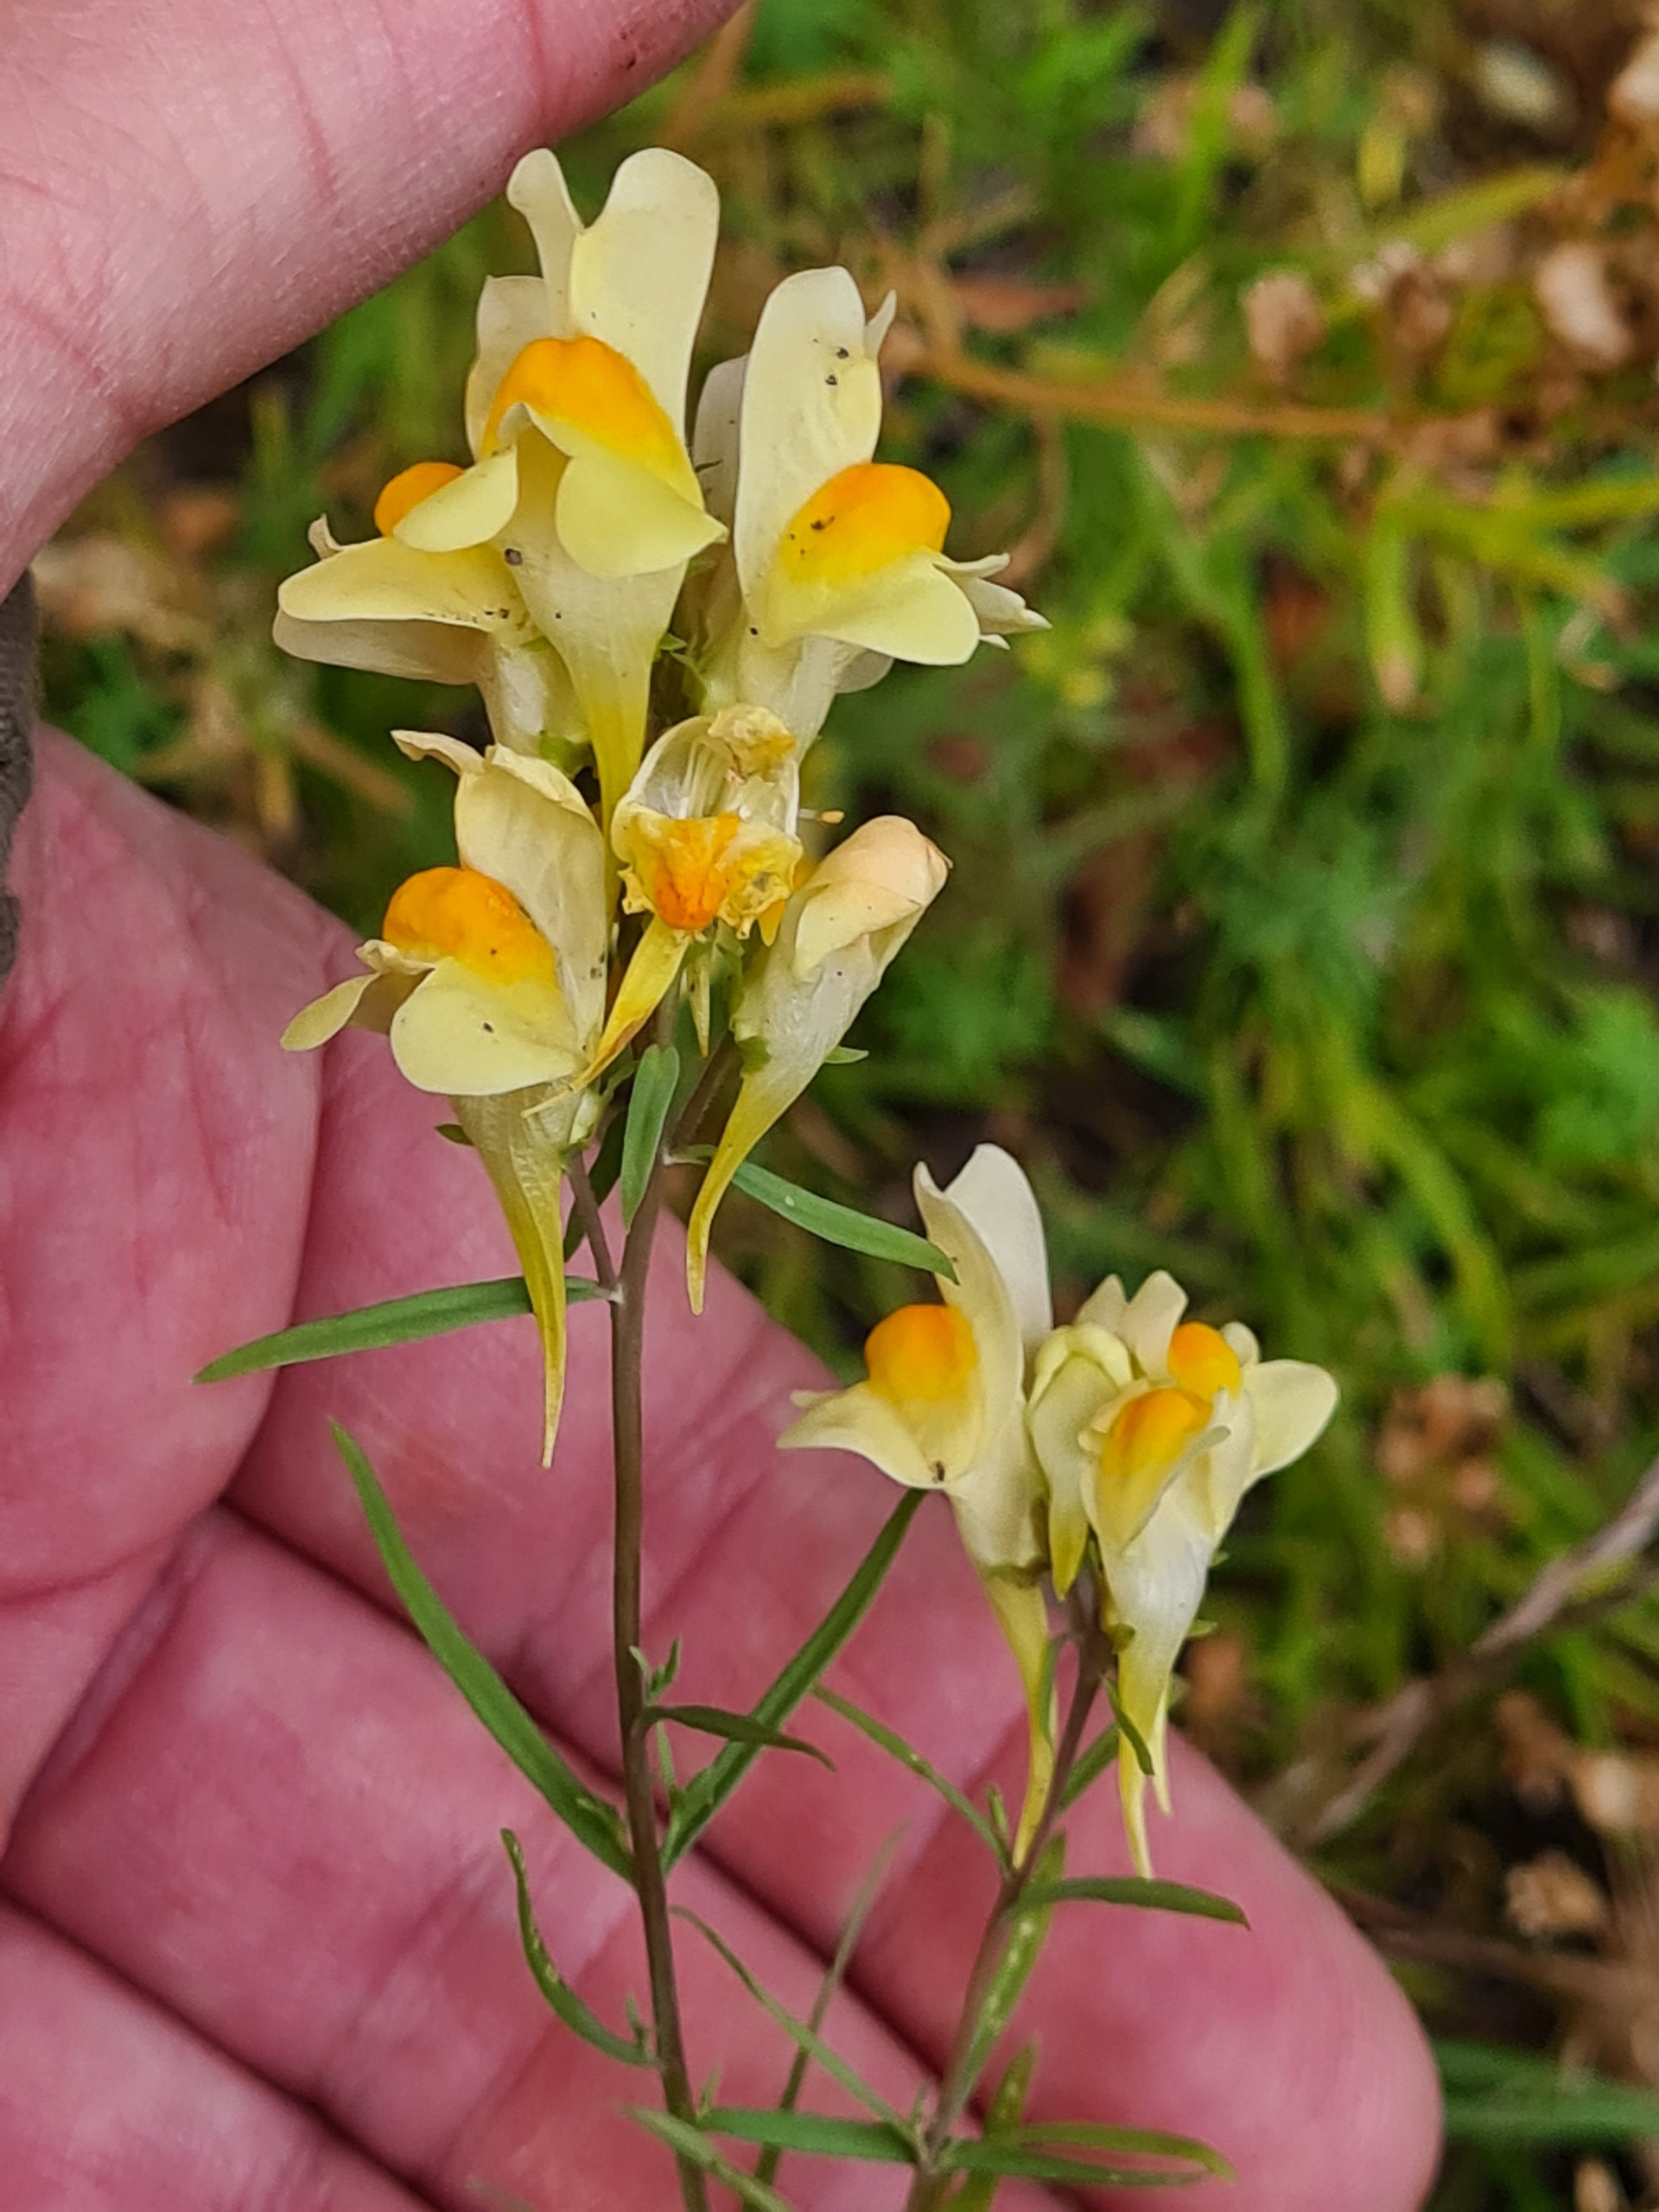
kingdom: Plantae
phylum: Tracheophyta
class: Magnoliopsida
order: Lamiales
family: Plantaginaceae
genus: Linaria
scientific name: Linaria vulgaris
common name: Almindelig torskemund
